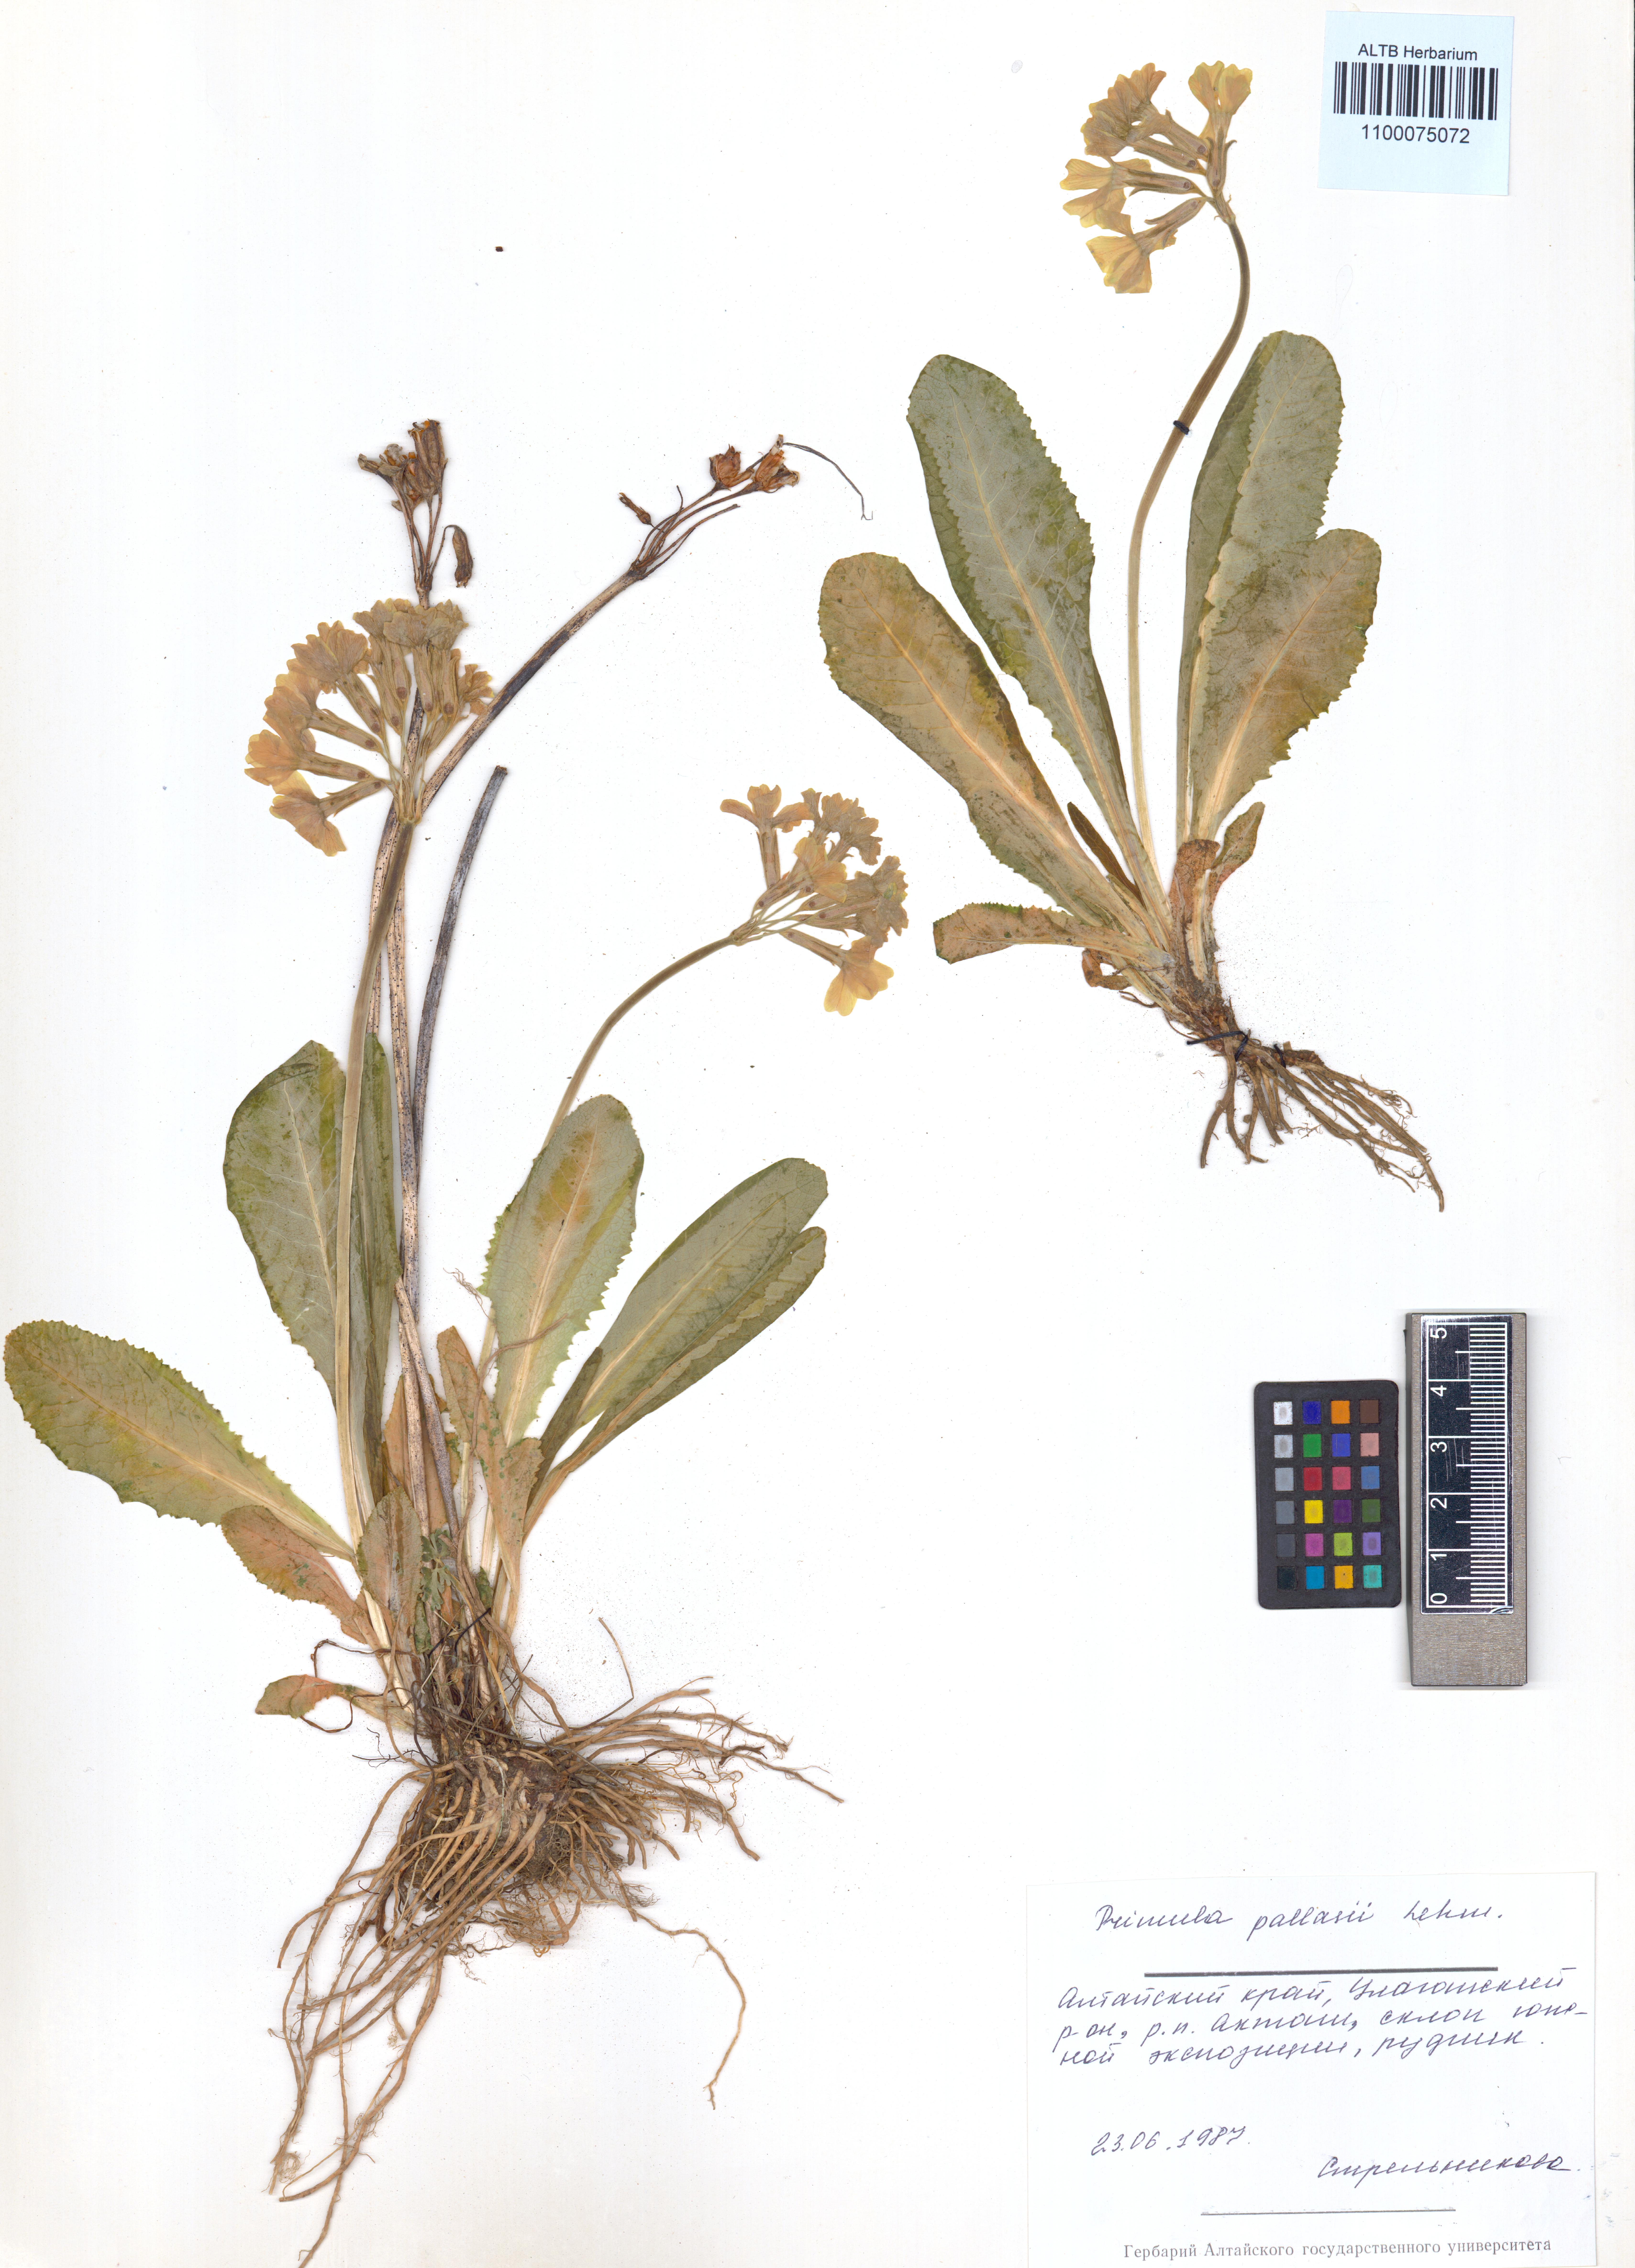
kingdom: Plantae
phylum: Tracheophyta
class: Magnoliopsida
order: Ericales
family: Primulaceae
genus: Primula
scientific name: Primula elatior
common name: Oxlip
